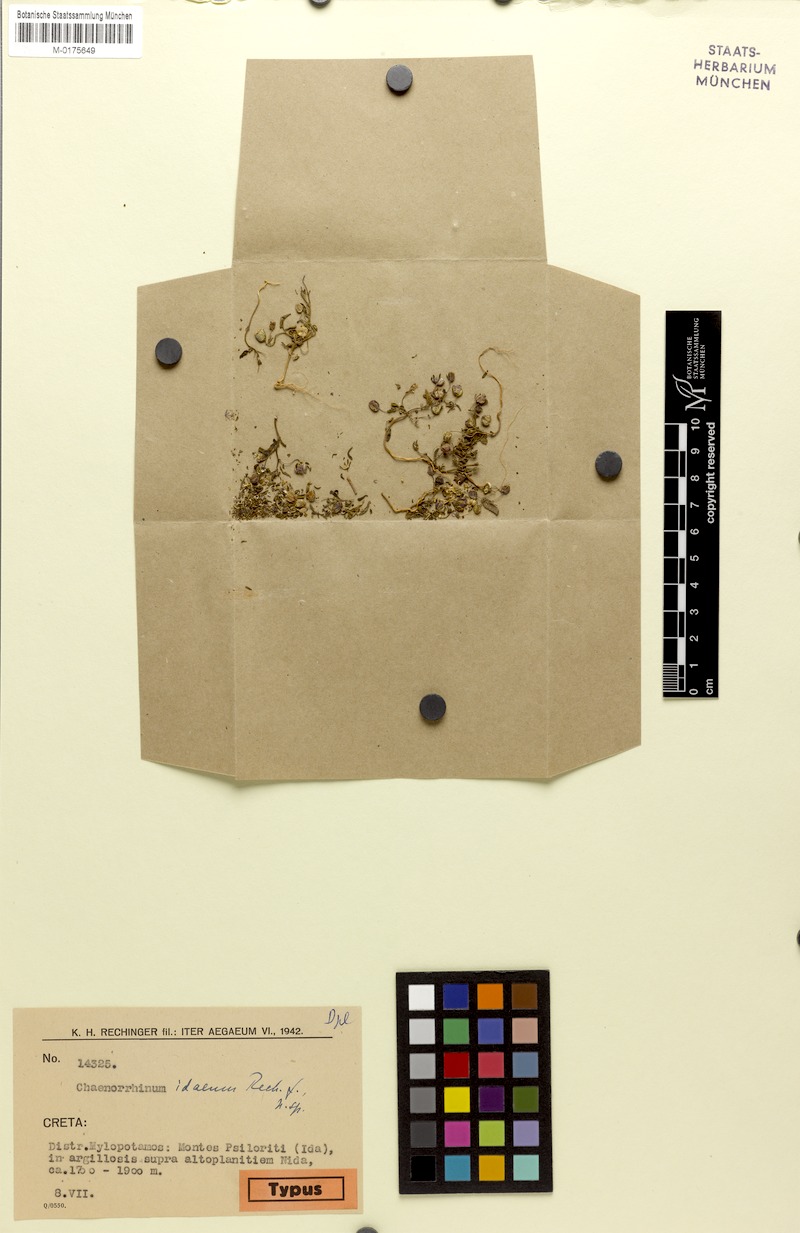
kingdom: Plantae
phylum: Tracheophyta
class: Magnoliopsida
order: Lamiales
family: Plantaginaceae
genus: Chaenorhinum
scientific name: Chaenorhinum minus
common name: Dwarf snapdragon
